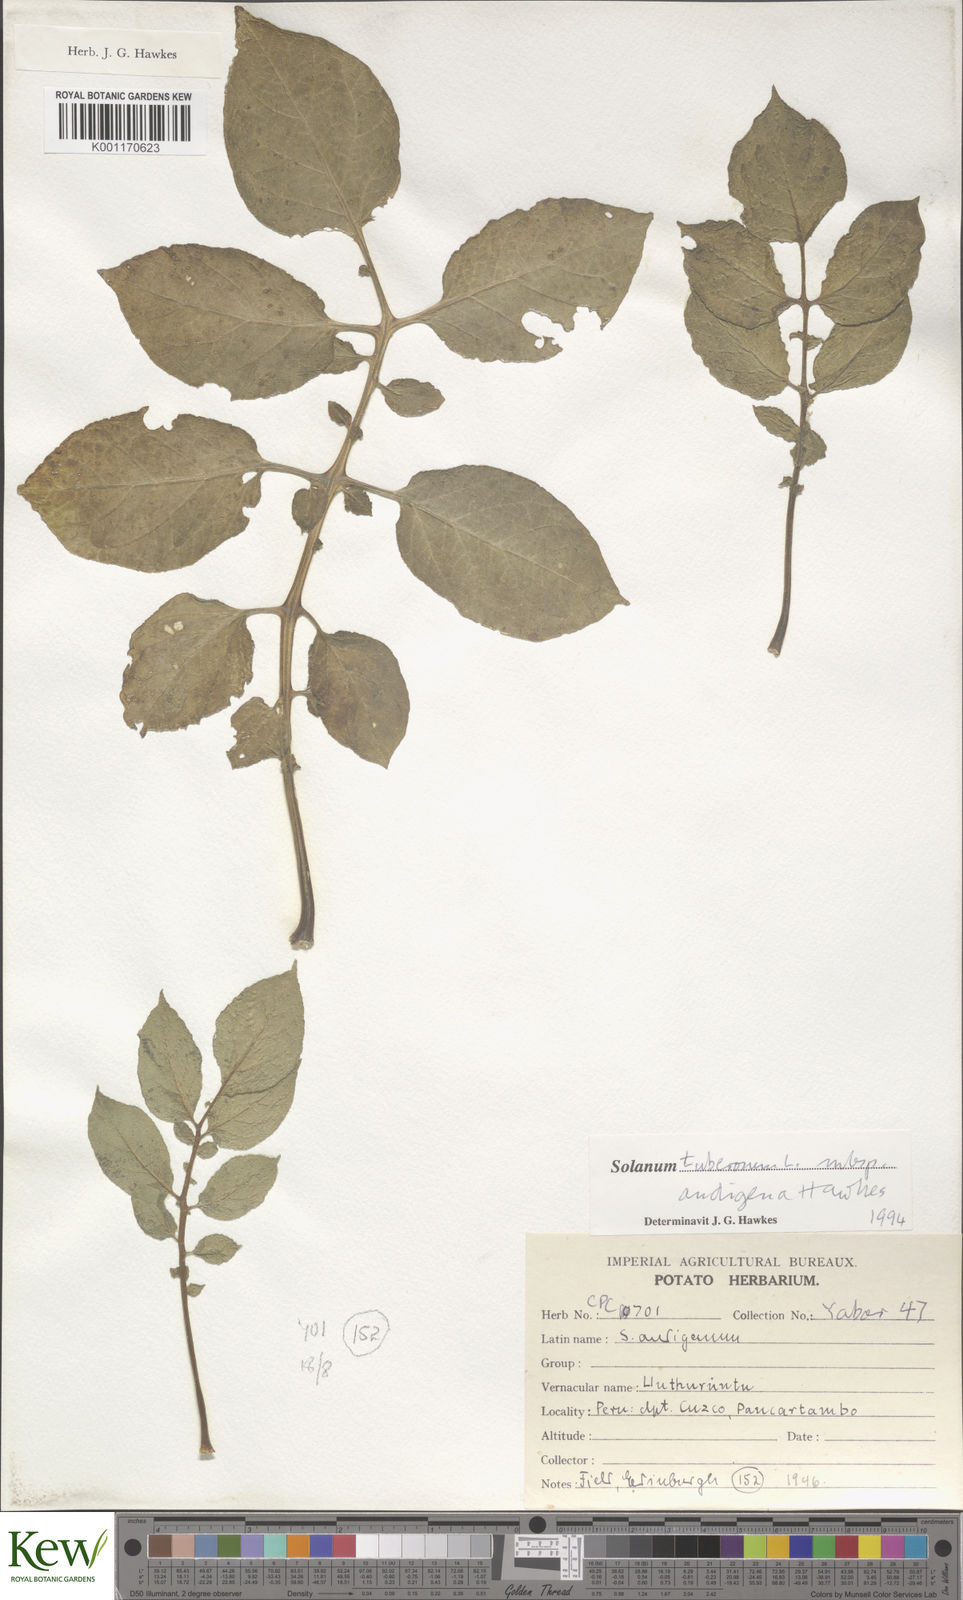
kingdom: Plantae
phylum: Tracheophyta
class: Magnoliopsida
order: Solanales
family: Solanaceae
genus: Solanum
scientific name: Solanum tuberosum
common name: Potato
